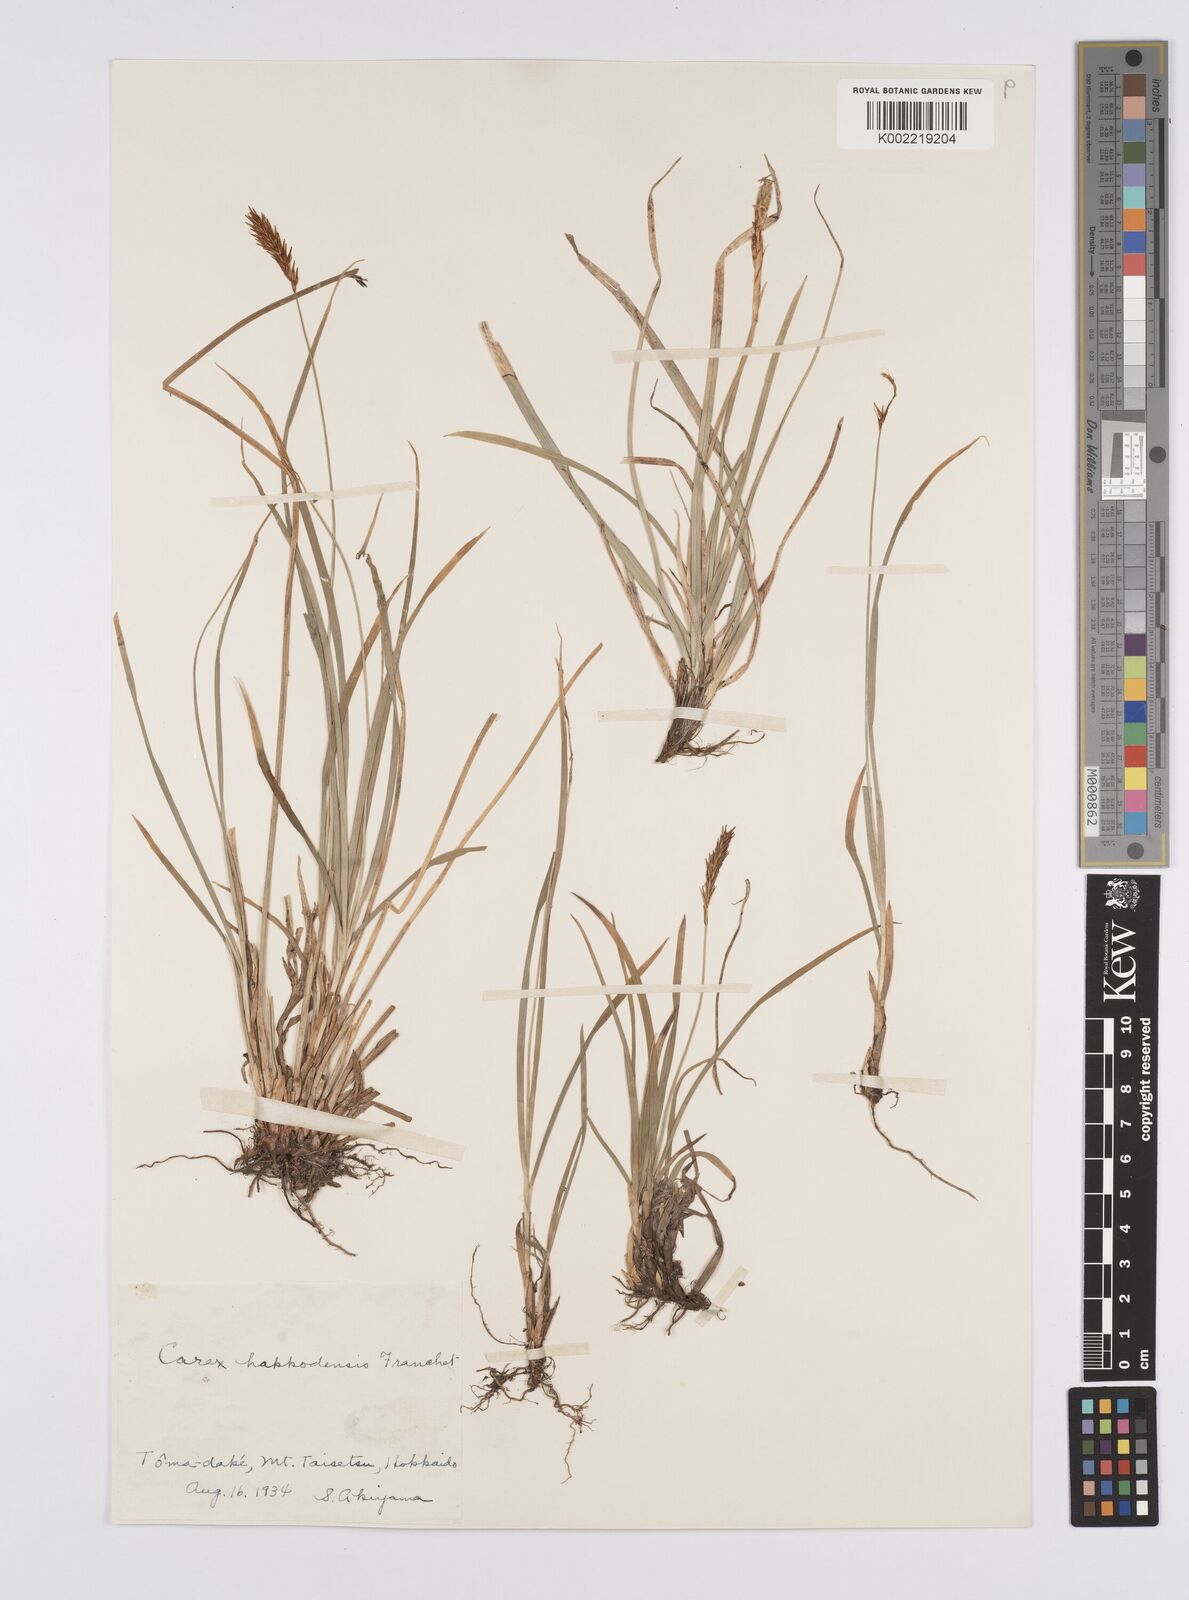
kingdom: Plantae
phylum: Tracheophyta
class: Liliopsida
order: Poales
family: Cyperaceae
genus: Carex
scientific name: Carex hakkodensis
